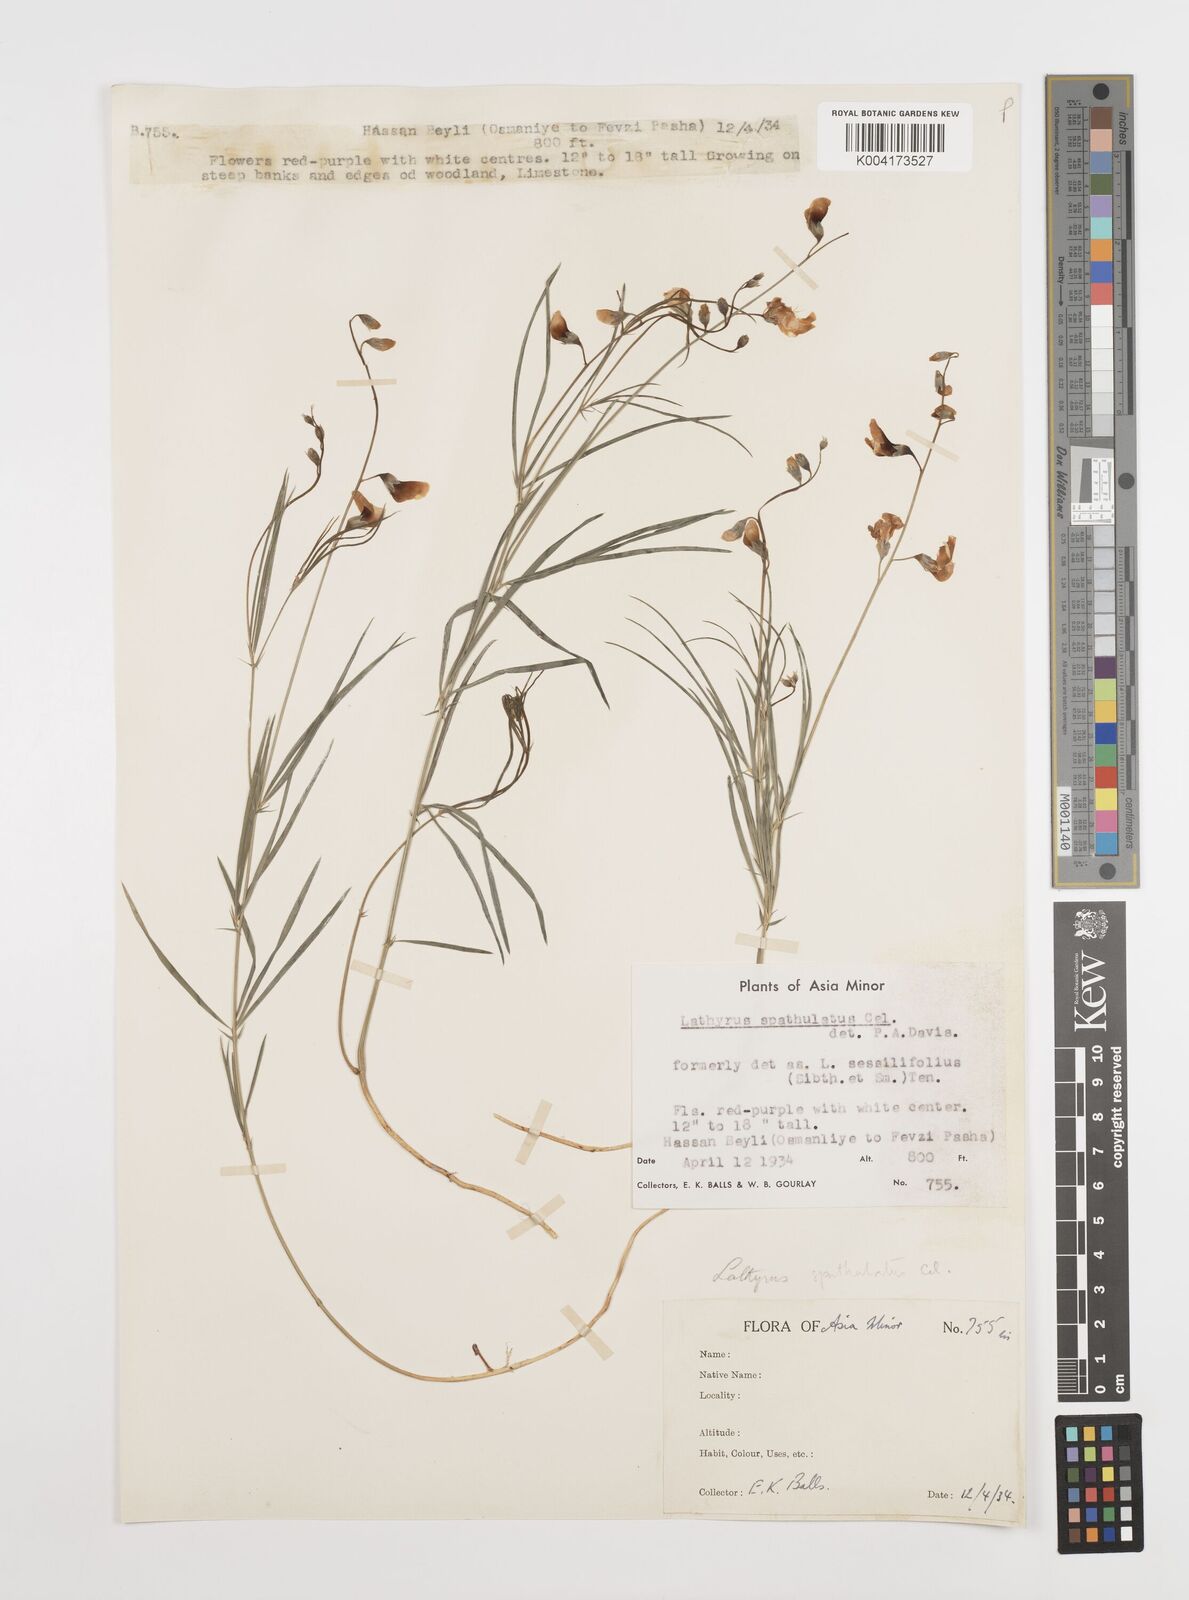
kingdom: Plantae
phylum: Tracheophyta
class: Magnoliopsida
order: Fabales
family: Fabaceae
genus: Lathyrus
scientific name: Lathyrus spathulatus
